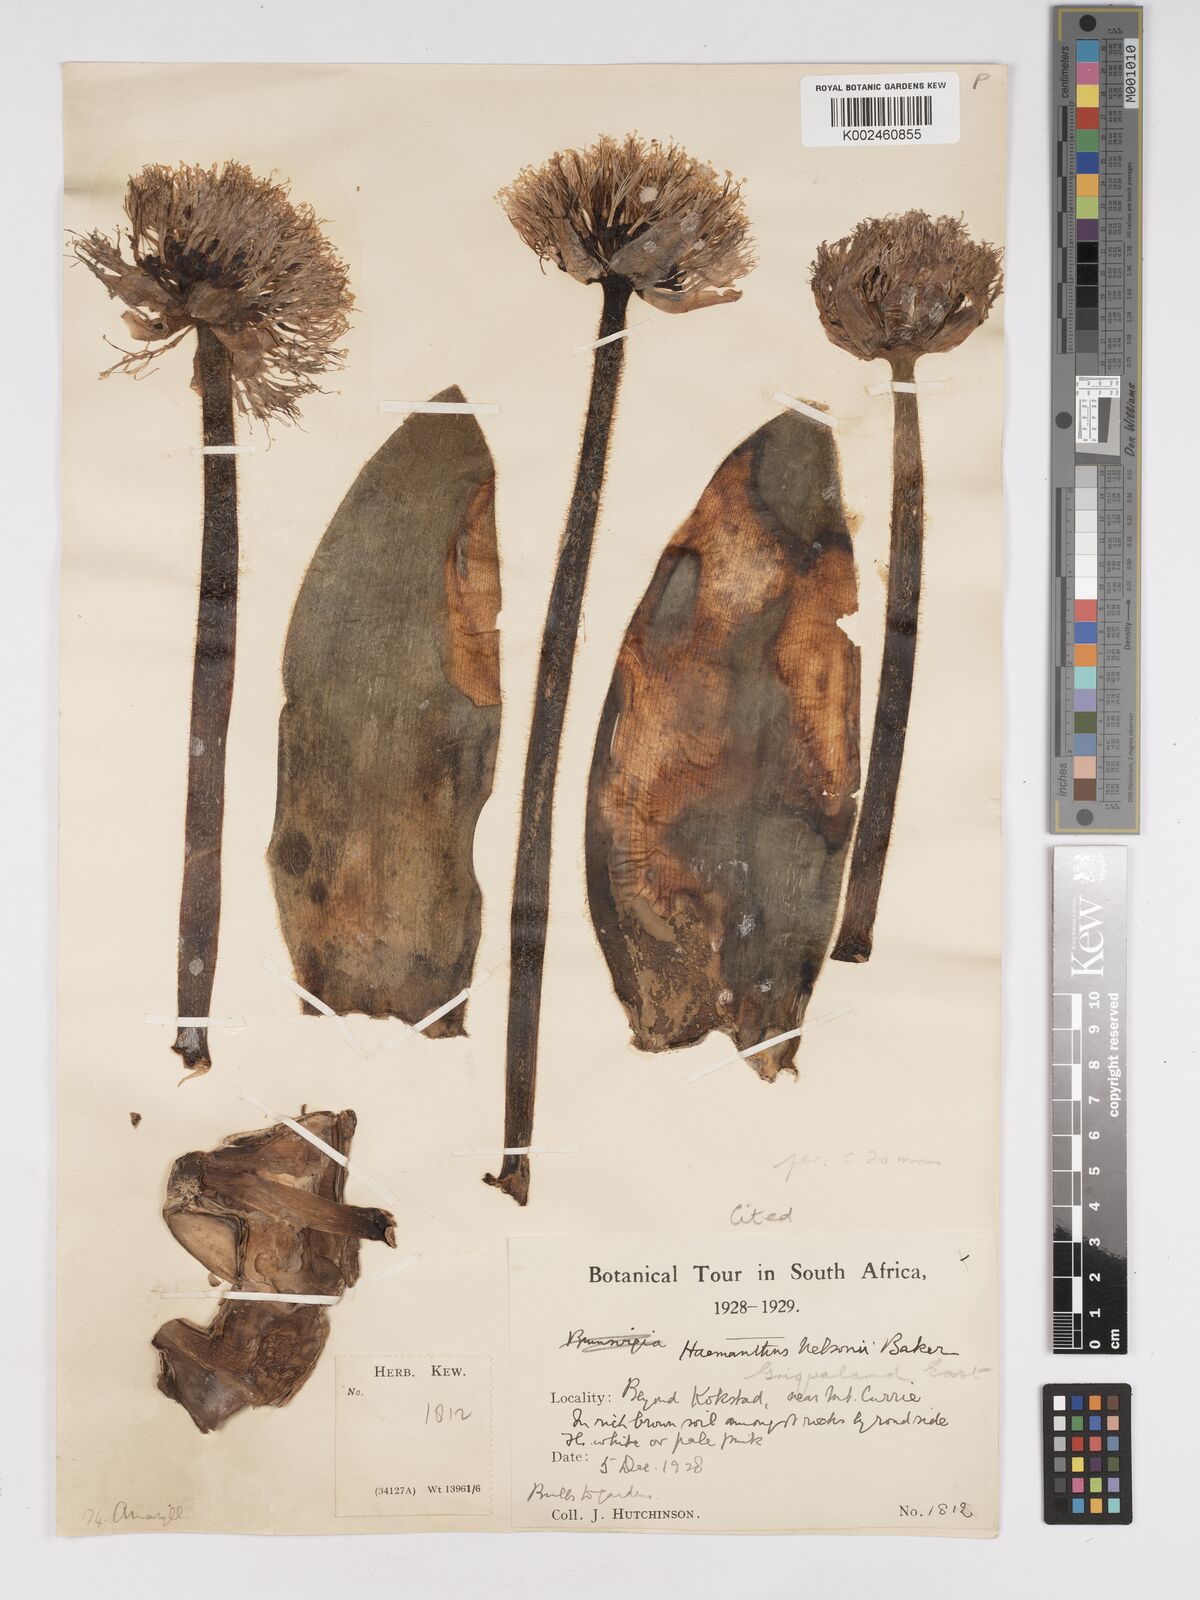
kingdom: Plantae
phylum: Tracheophyta
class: Liliopsida
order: Asparagales
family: Amaryllidaceae
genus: Haemanthus
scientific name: Haemanthus humilis
